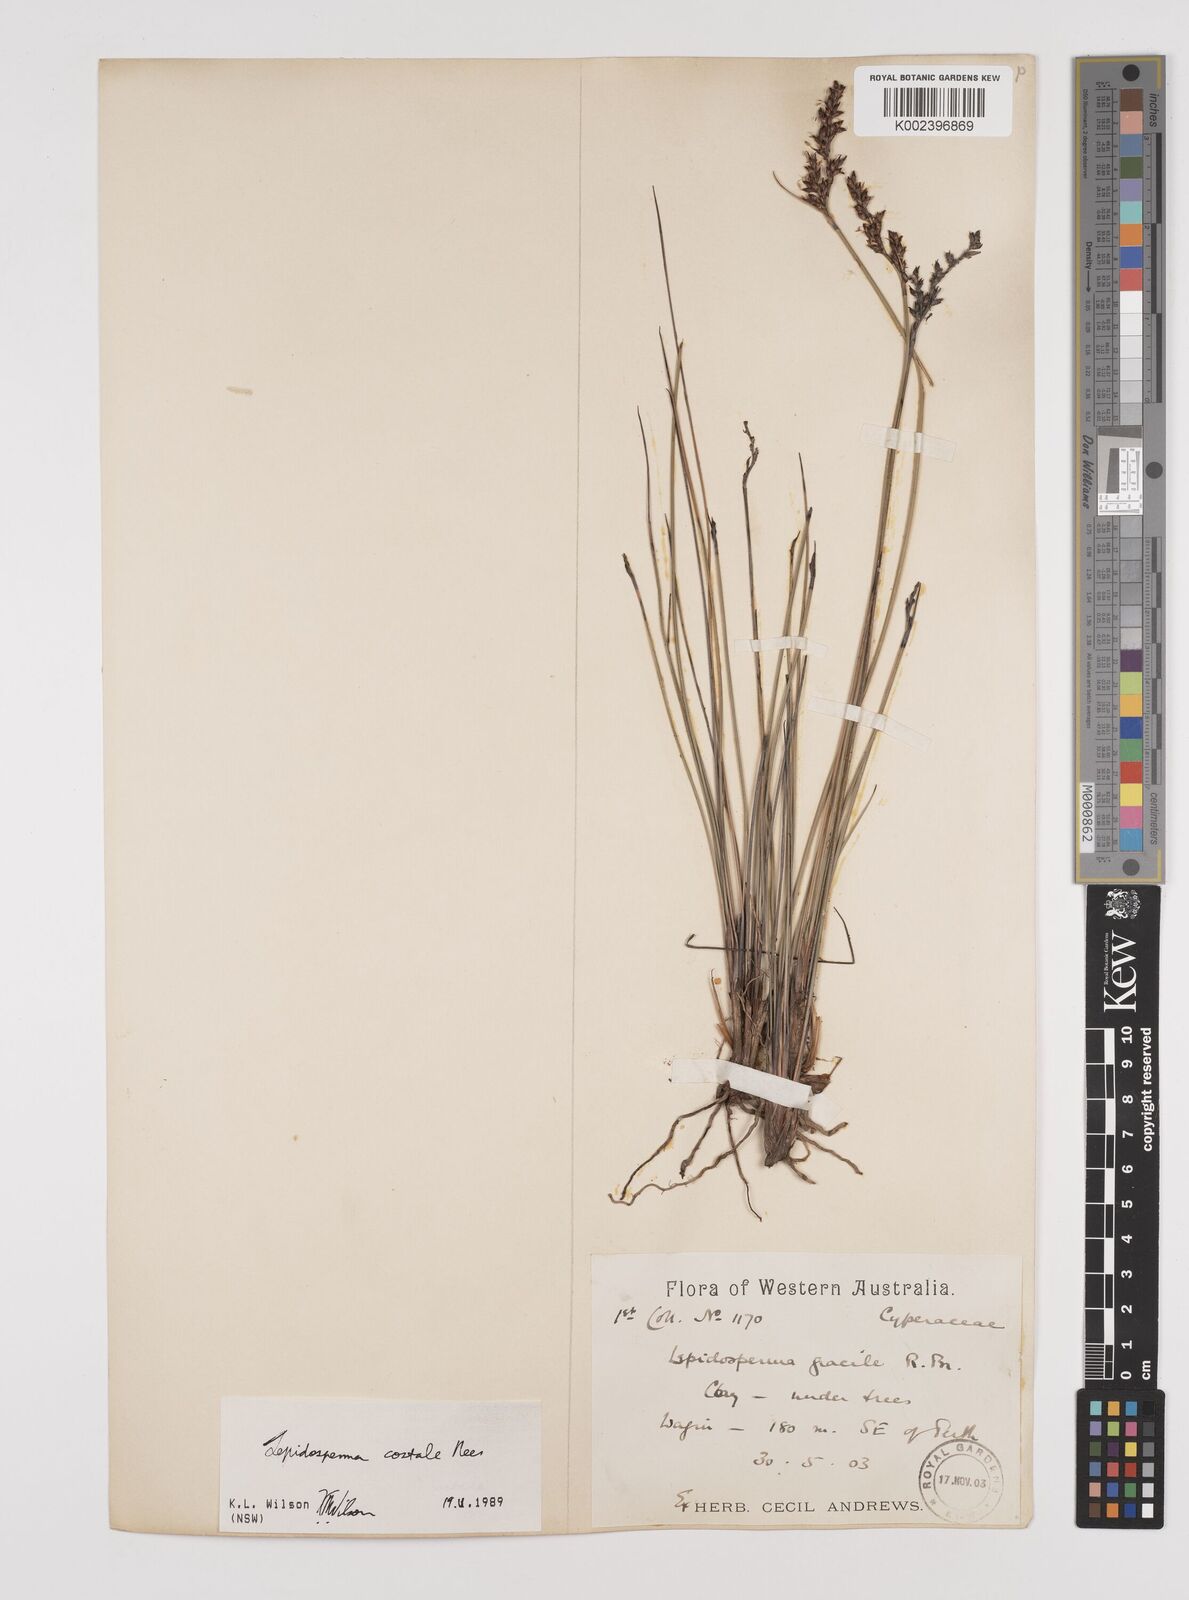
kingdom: Plantae
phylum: Tracheophyta
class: Liliopsida
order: Poales
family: Cyperaceae
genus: Lepidosperma
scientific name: Lepidosperma costale
